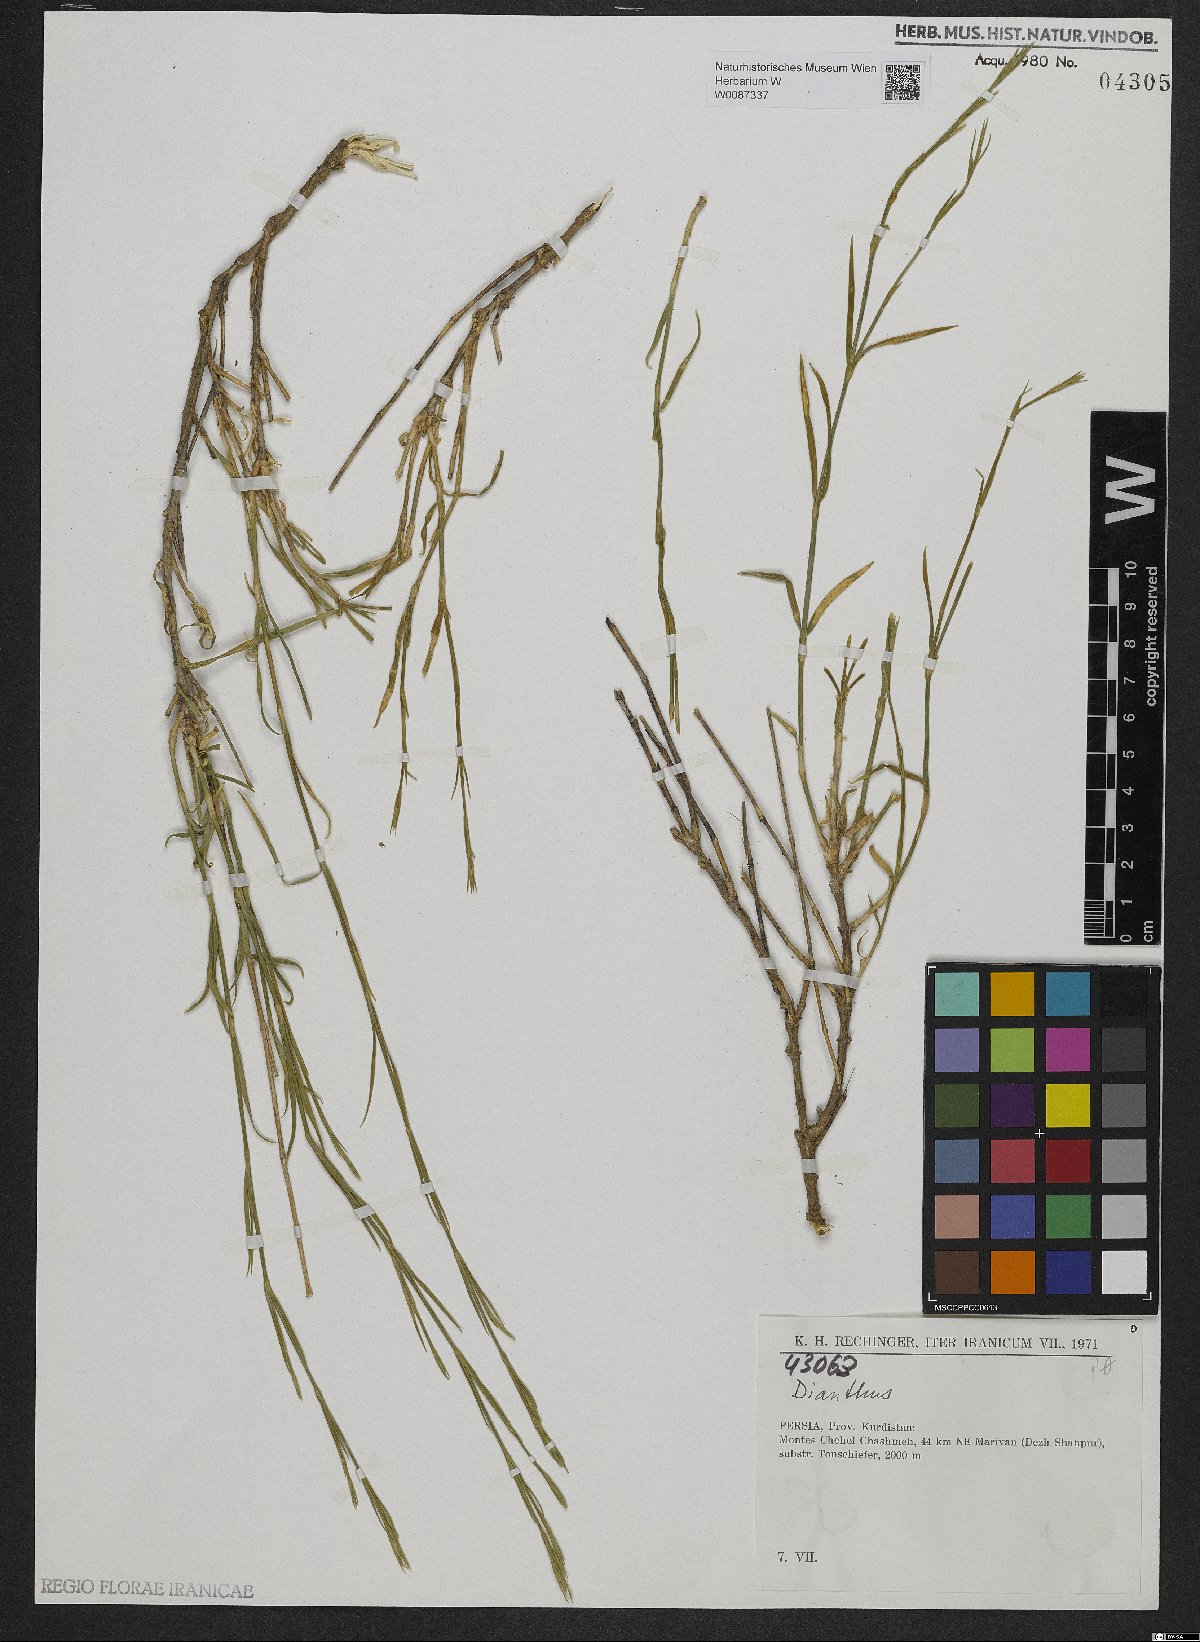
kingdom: Plantae
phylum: Tracheophyta
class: Magnoliopsida
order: Caryophyllales
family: Caryophyllaceae
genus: Dianthus
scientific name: Dianthus
